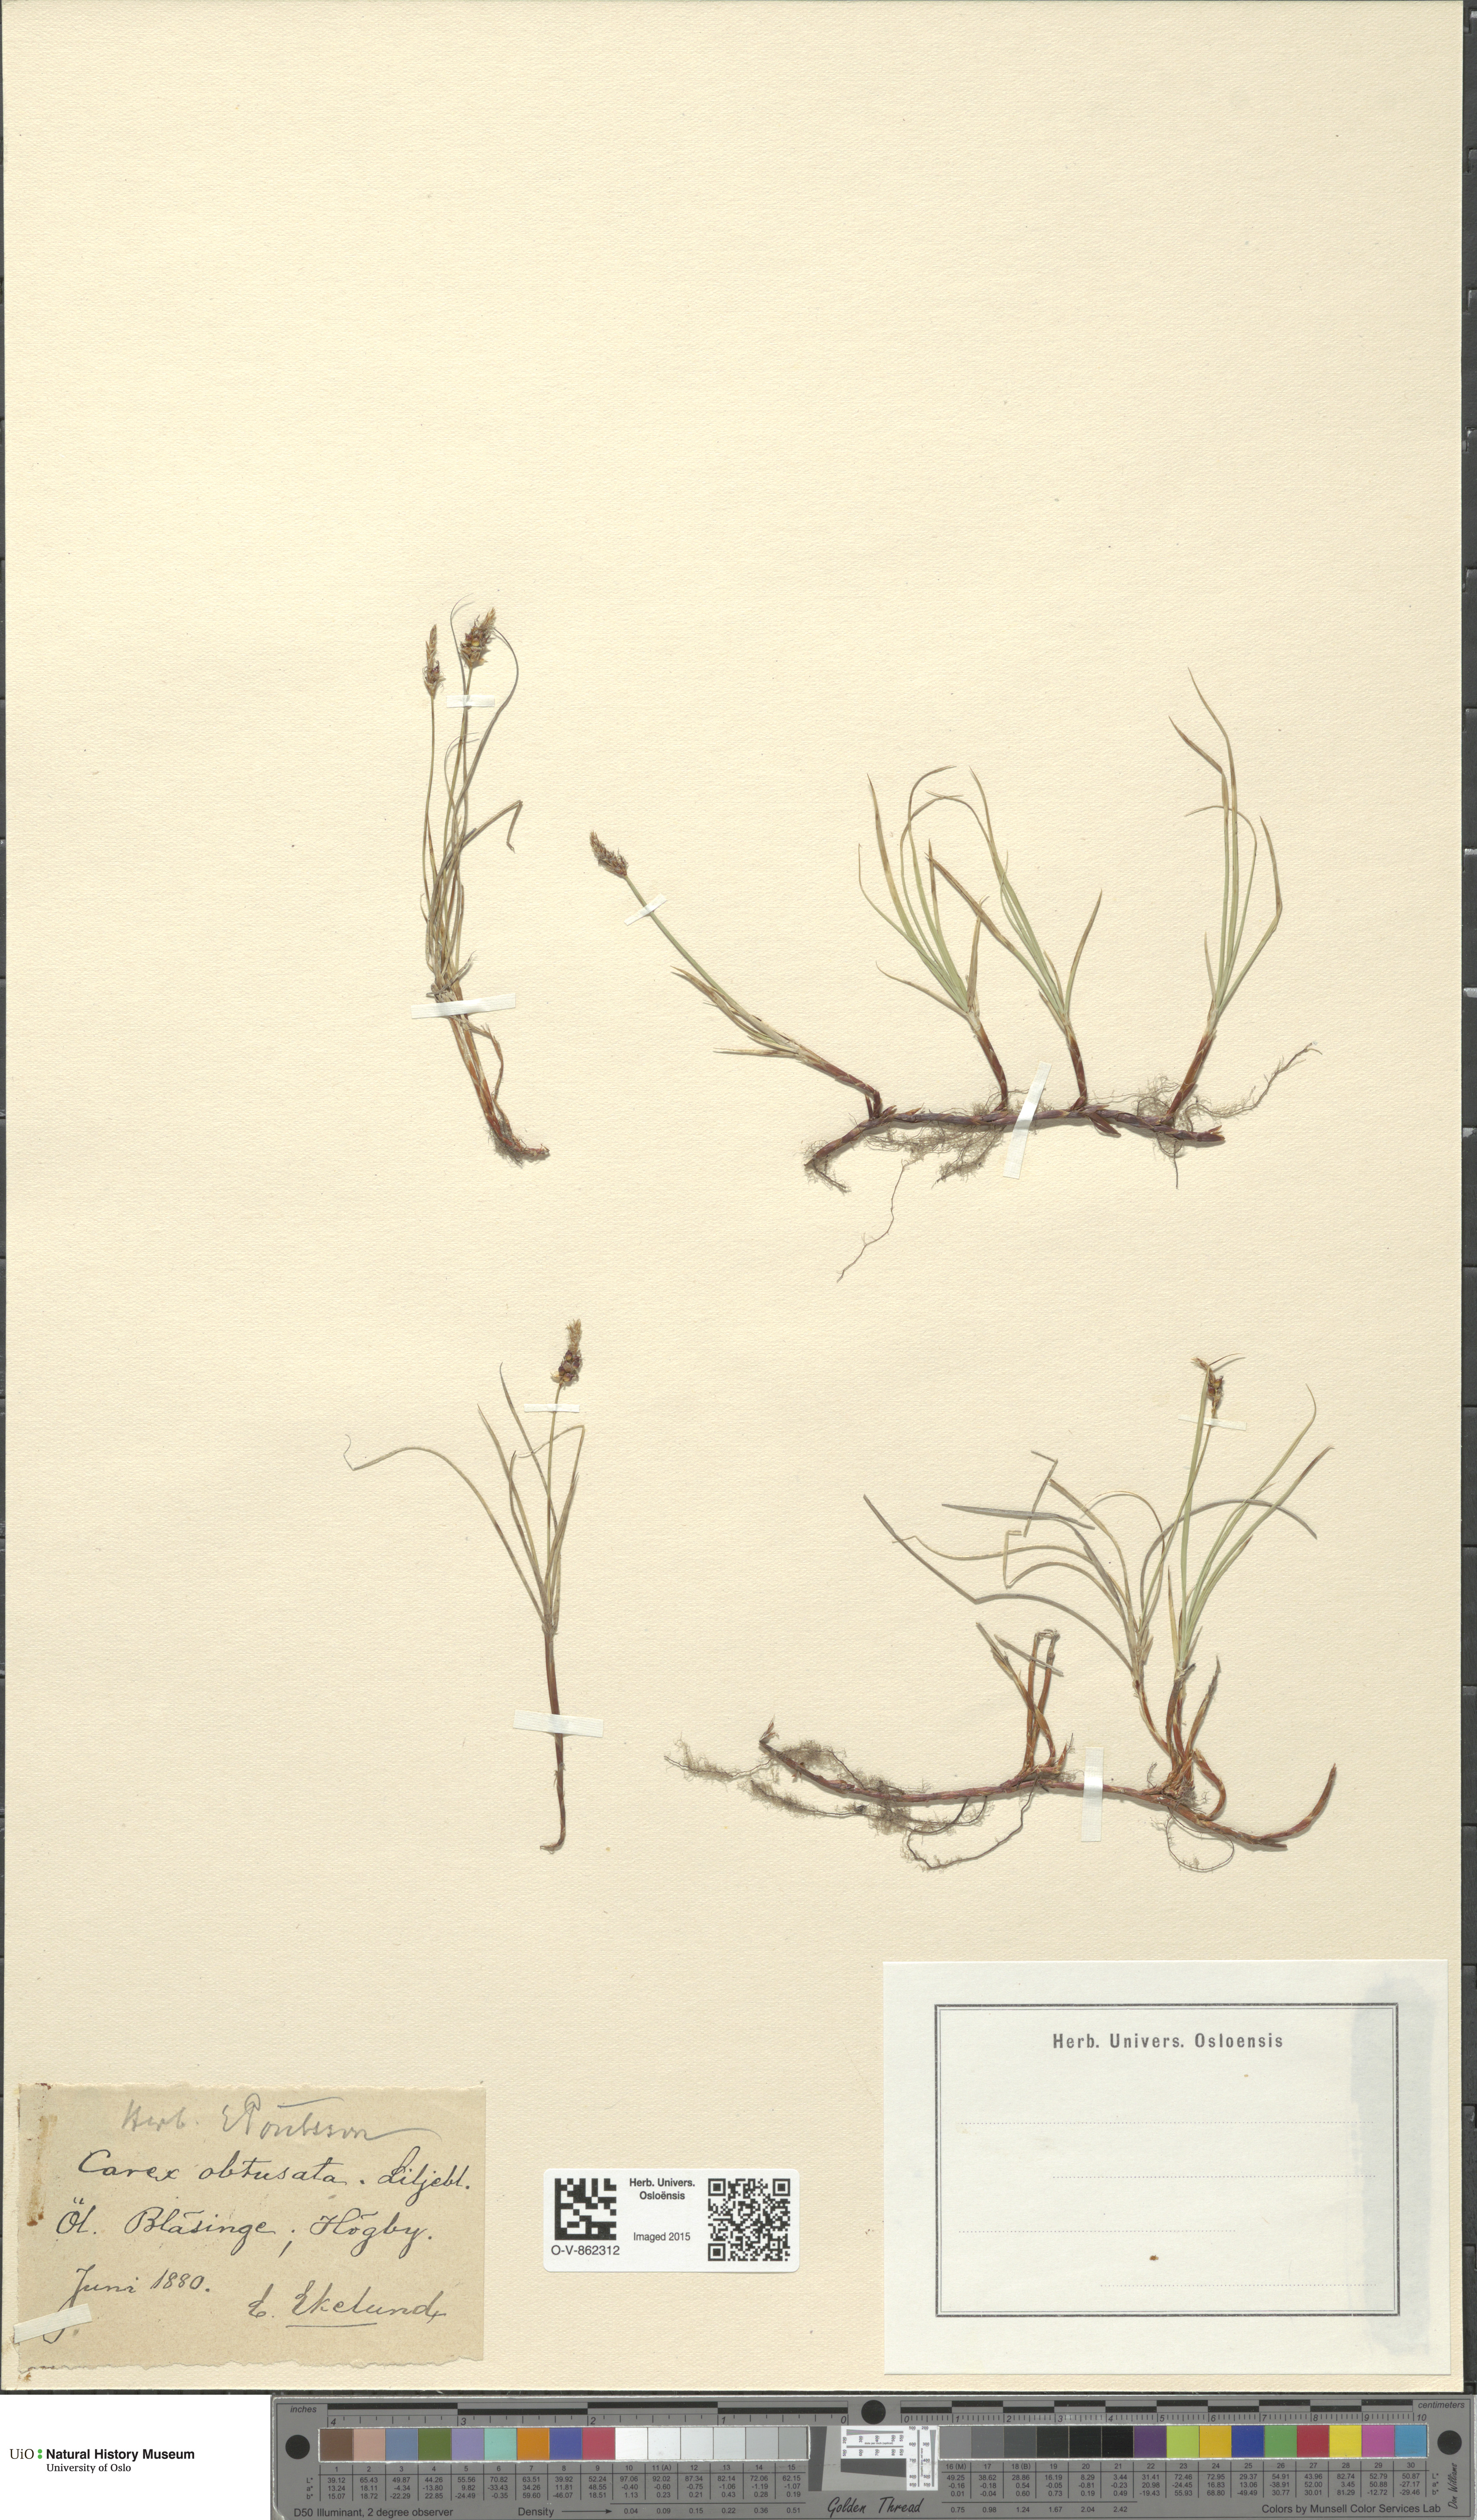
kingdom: Plantae
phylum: Tracheophyta
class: Liliopsida
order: Poales
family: Cyperaceae
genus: Carex
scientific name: Carex obtusata
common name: Blunt sedge
